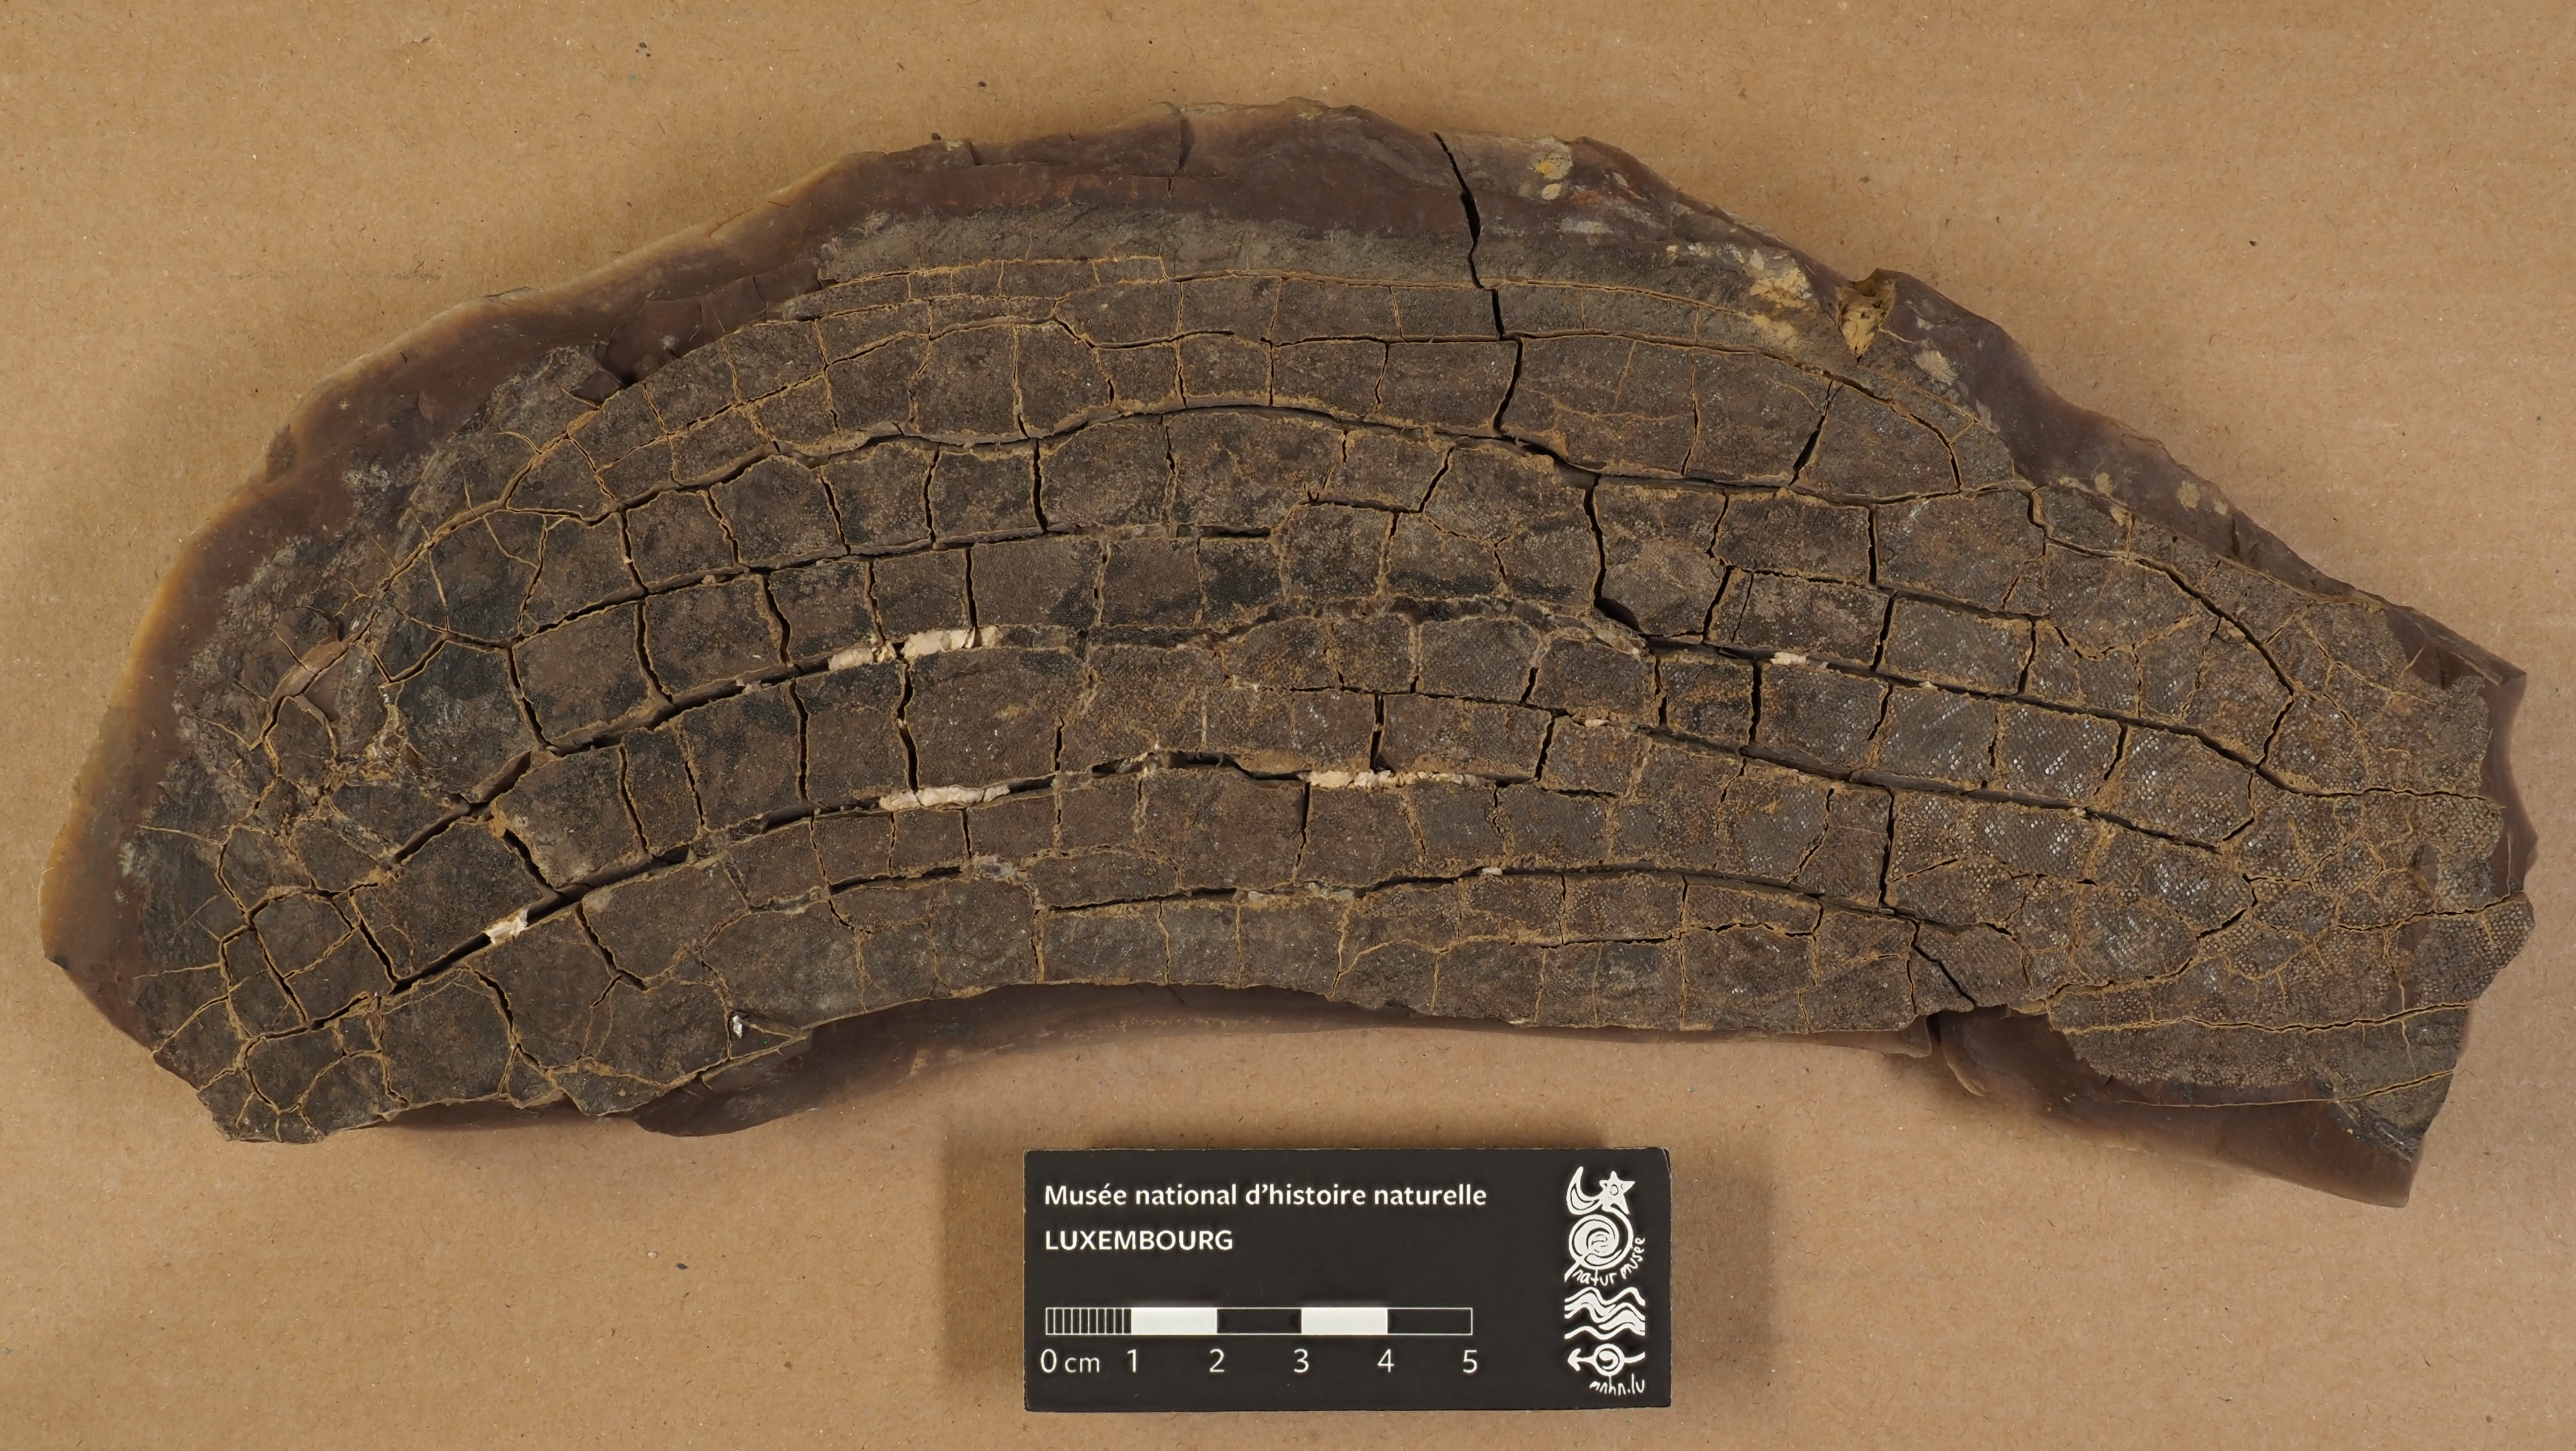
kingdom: Animalia
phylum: Chordata
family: Acanthodidae
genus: Acanthodes
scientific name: Acanthodes
